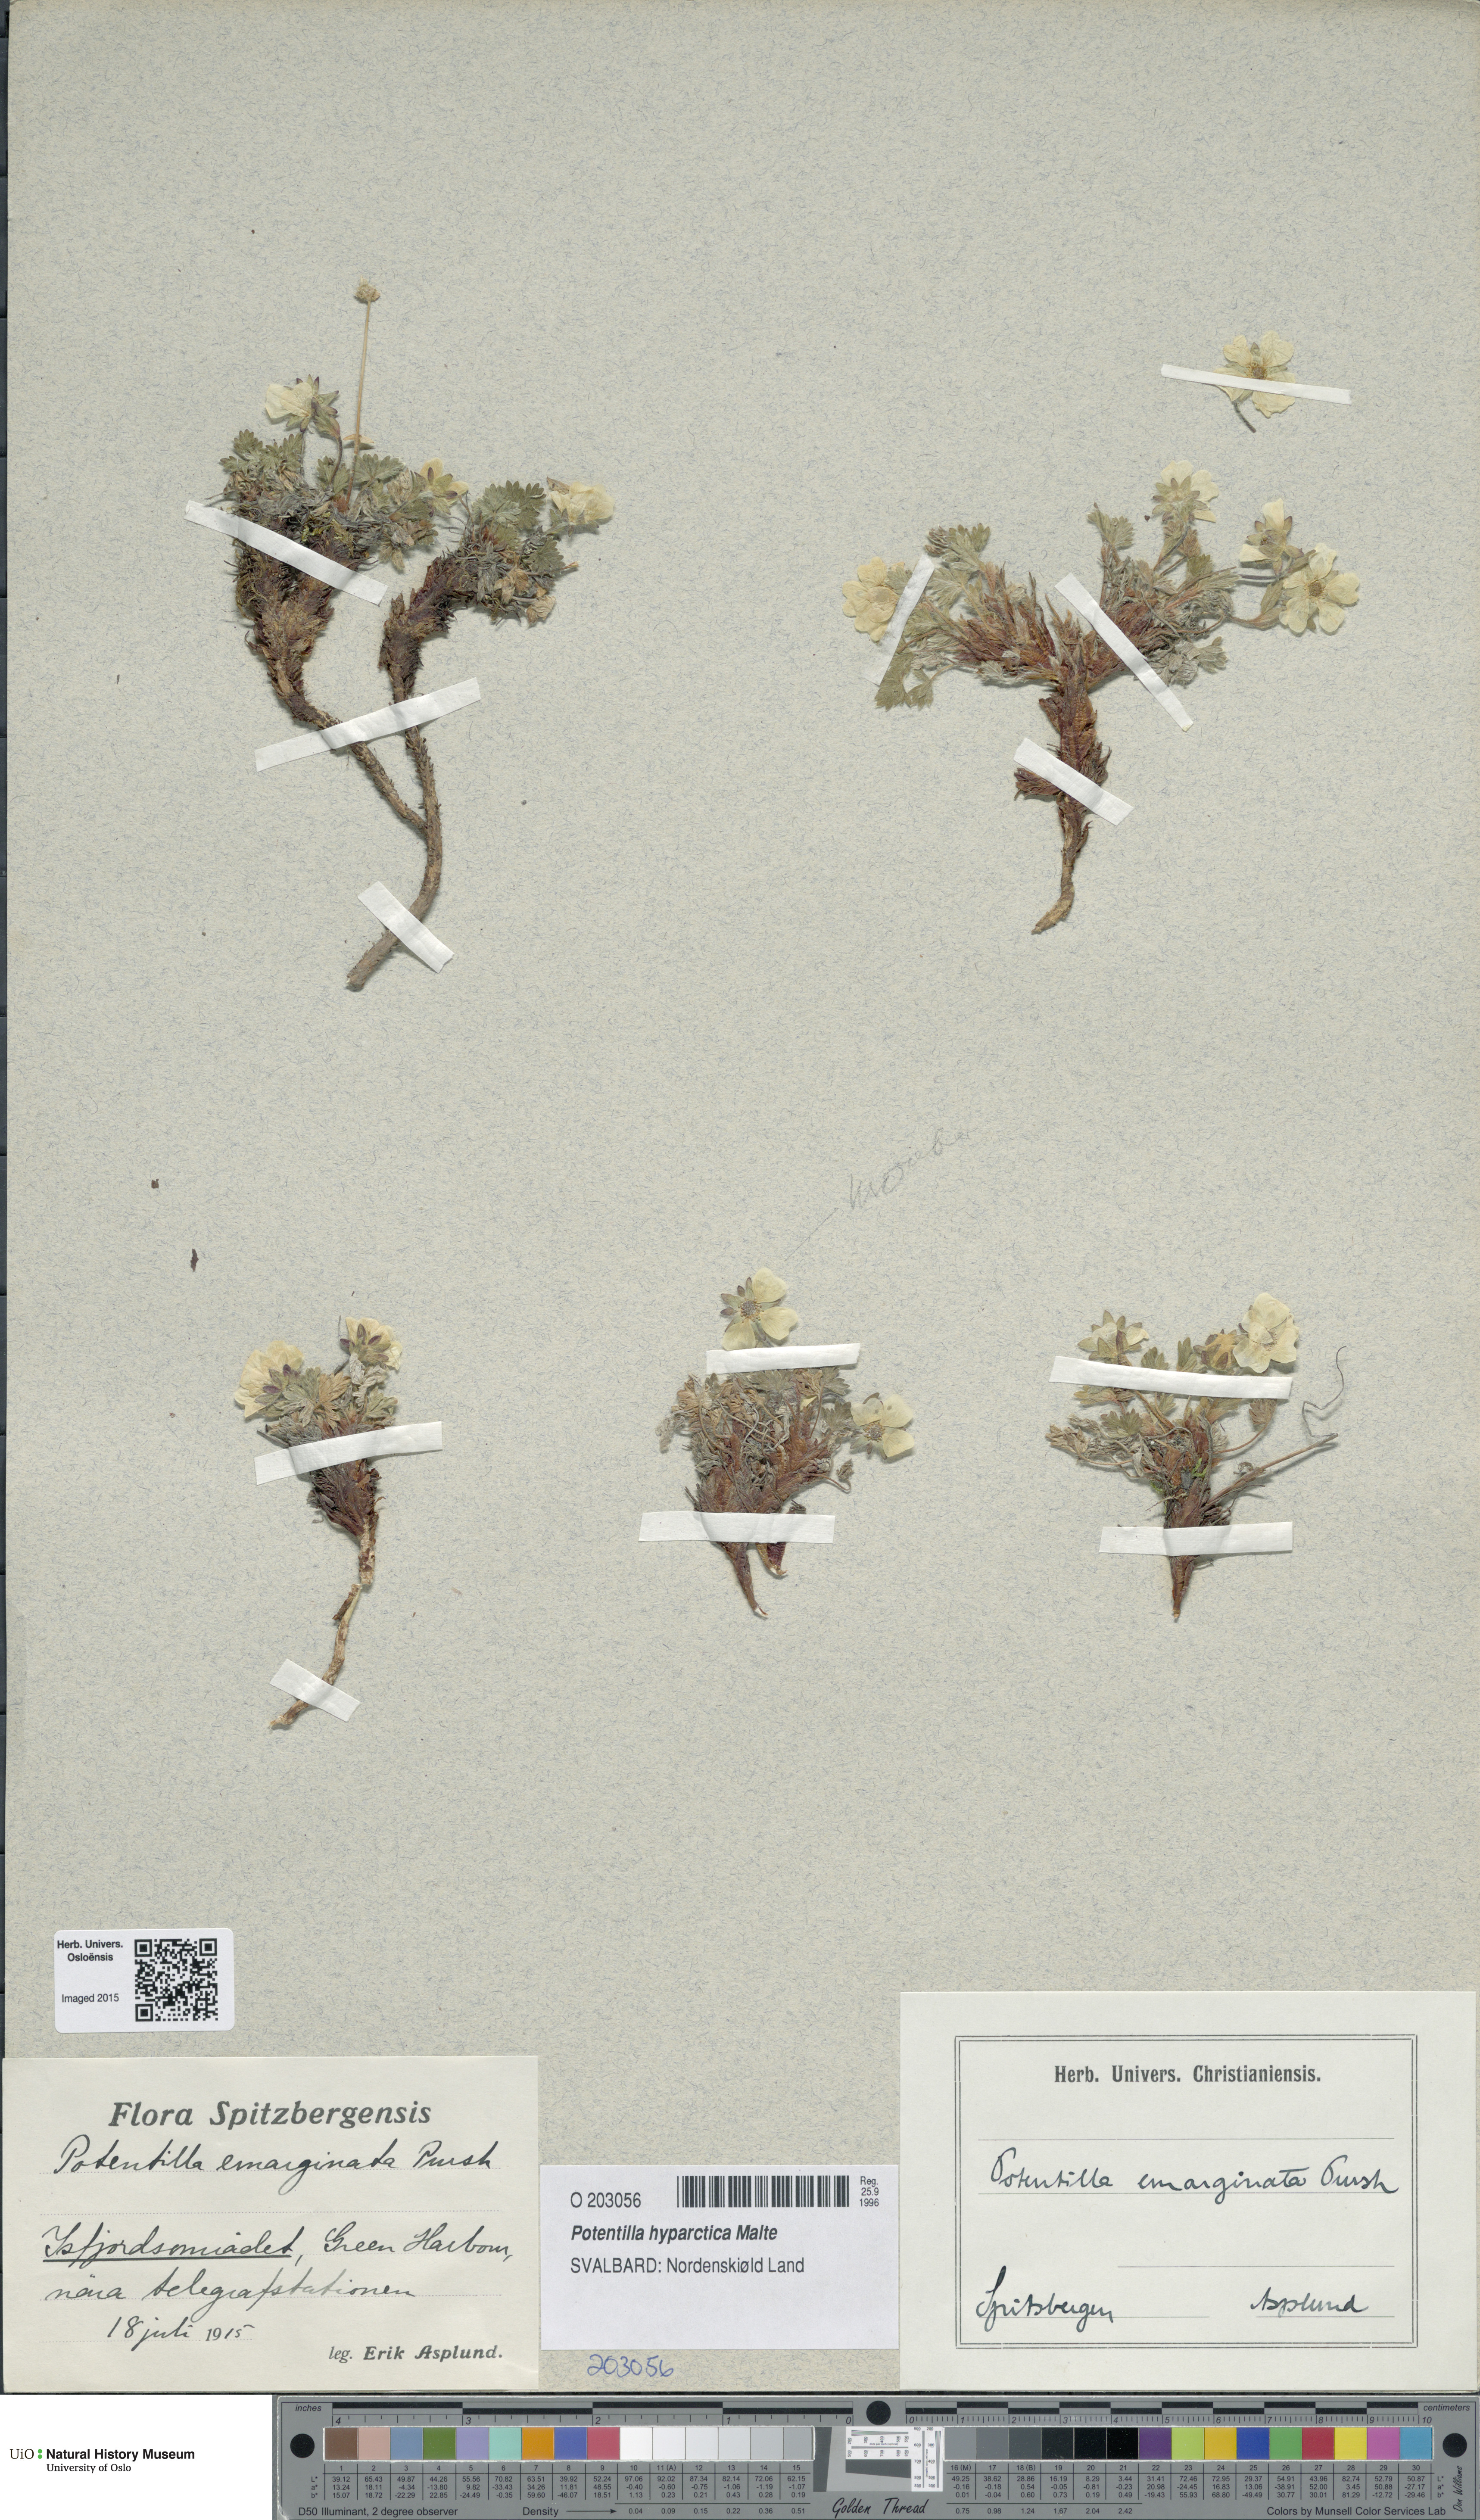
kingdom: Plantae
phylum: Tracheophyta
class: Magnoliopsida
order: Rosales
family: Rosaceae
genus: Potentilla
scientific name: Potentilla hyparctica
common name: Arctic cinquefoil
